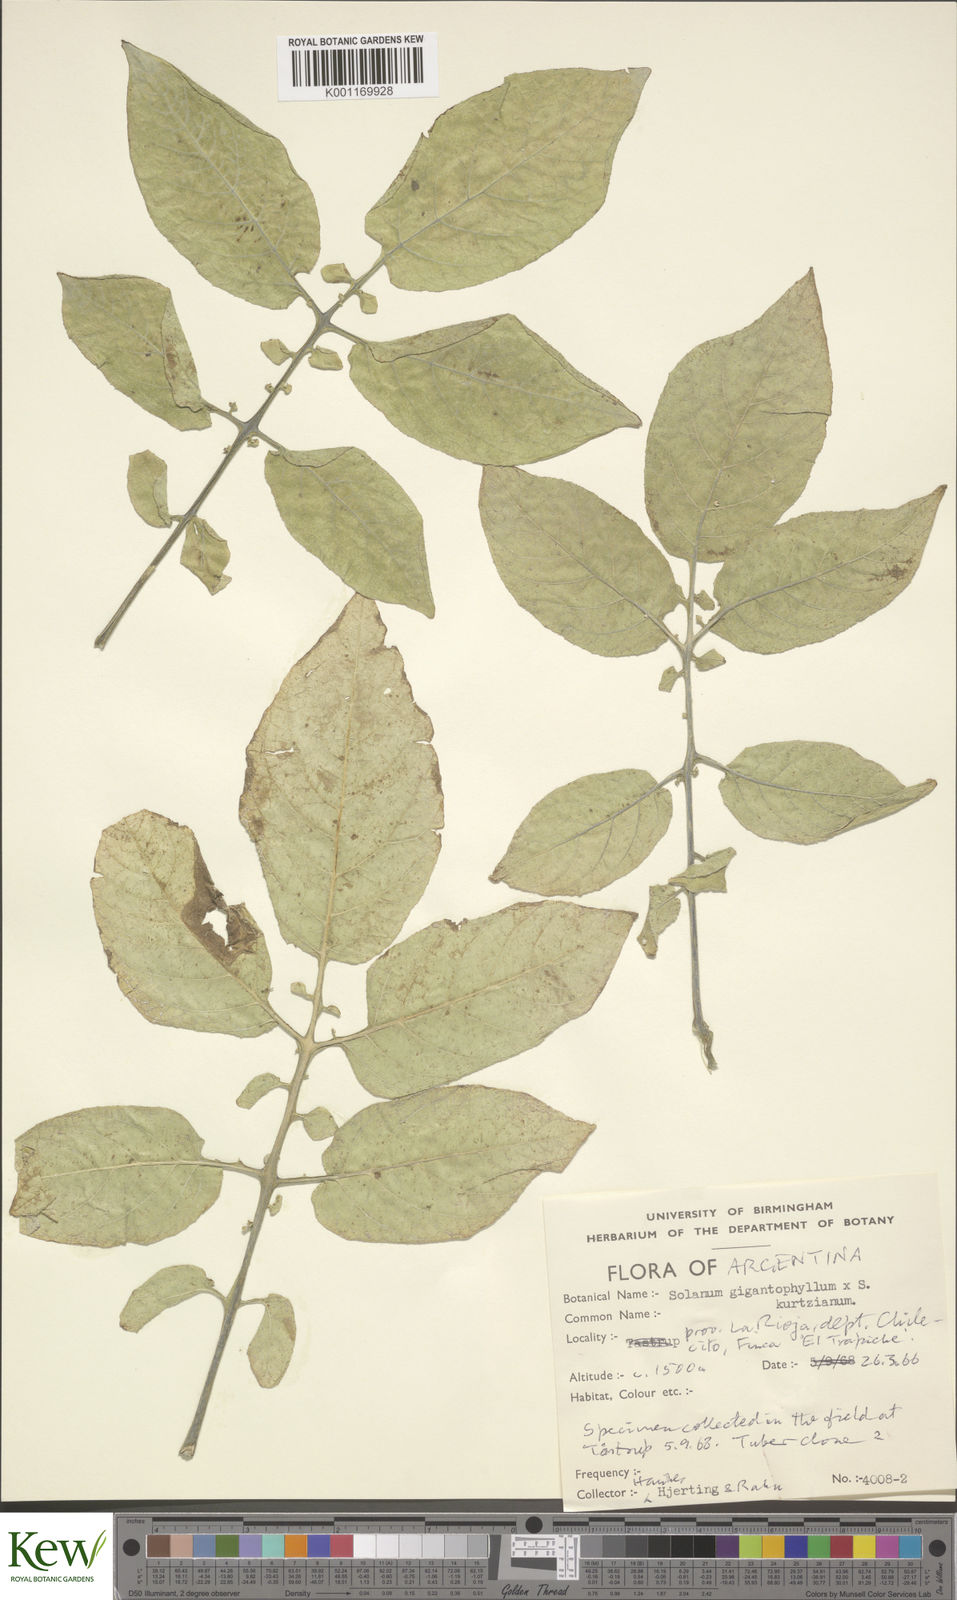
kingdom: Plantae
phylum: Tracheophyta
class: Magnoliopsida
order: Solanales
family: Solanaceae
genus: Solanum
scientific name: Solanum rechei
